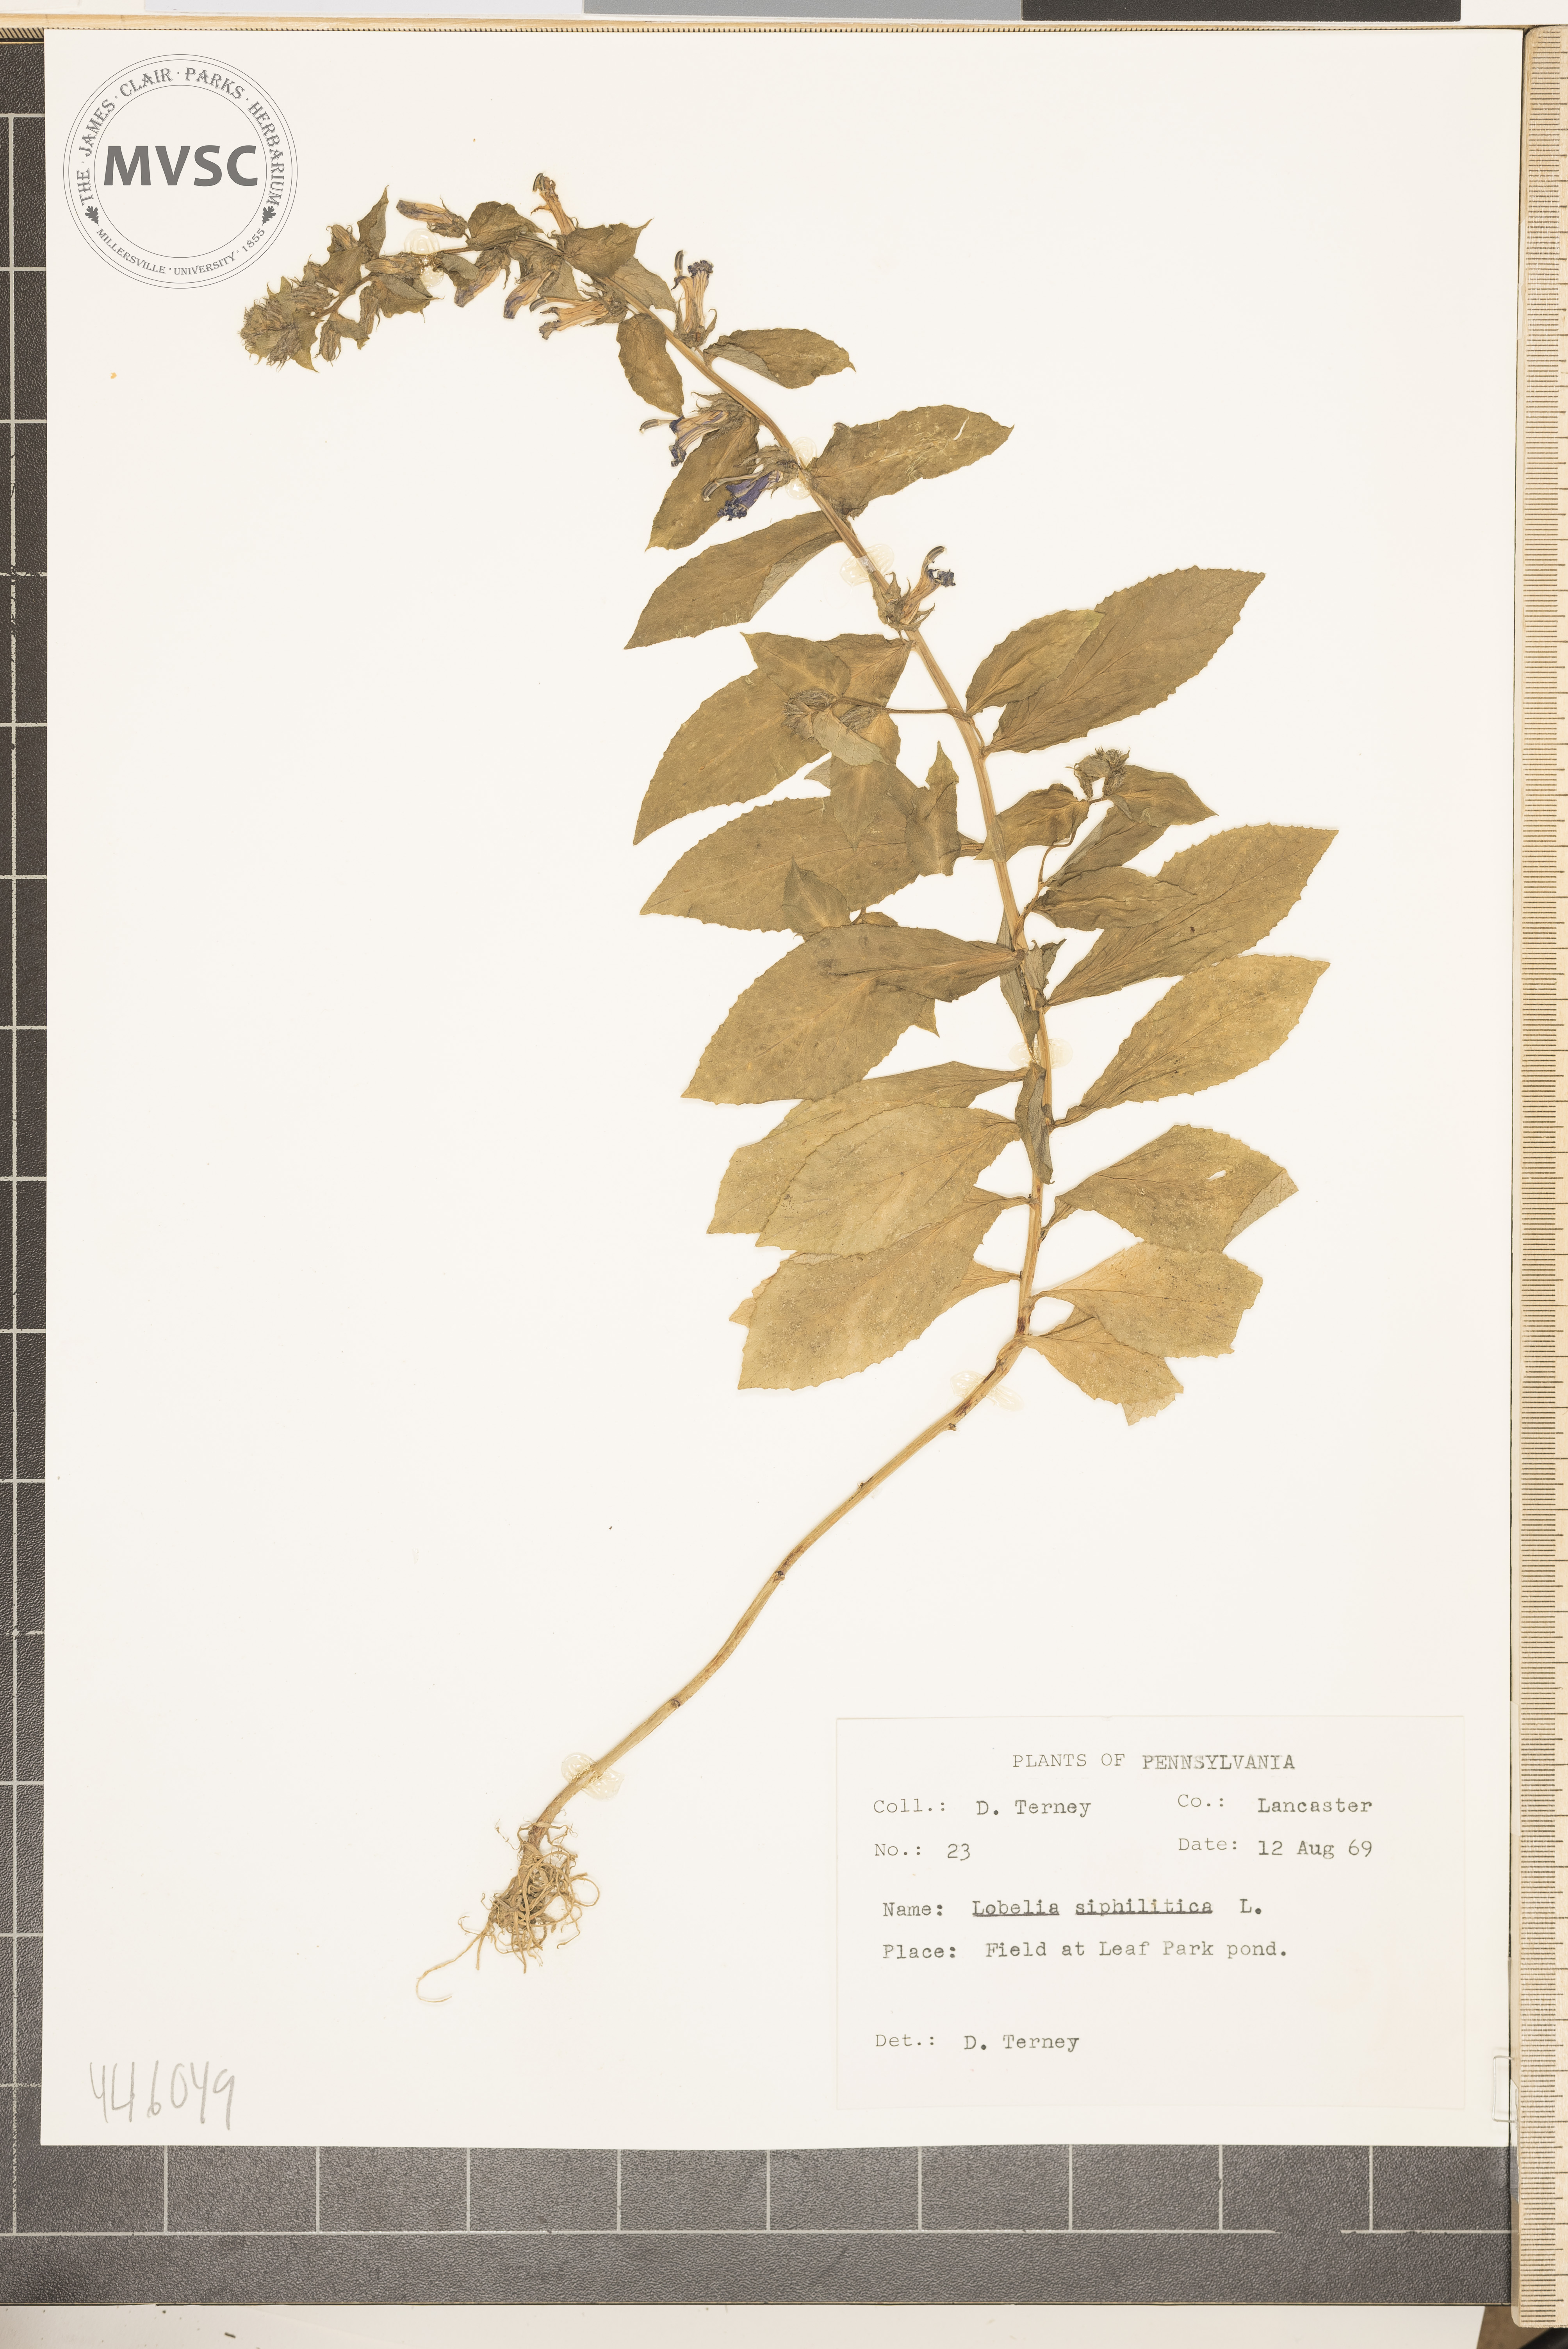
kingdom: Plantae
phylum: Tracheophyta
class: Magnoliopsida
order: Asterales
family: Campanulaceae
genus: Lobelia
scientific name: Lobelia siphilitica
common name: Great lobelia
